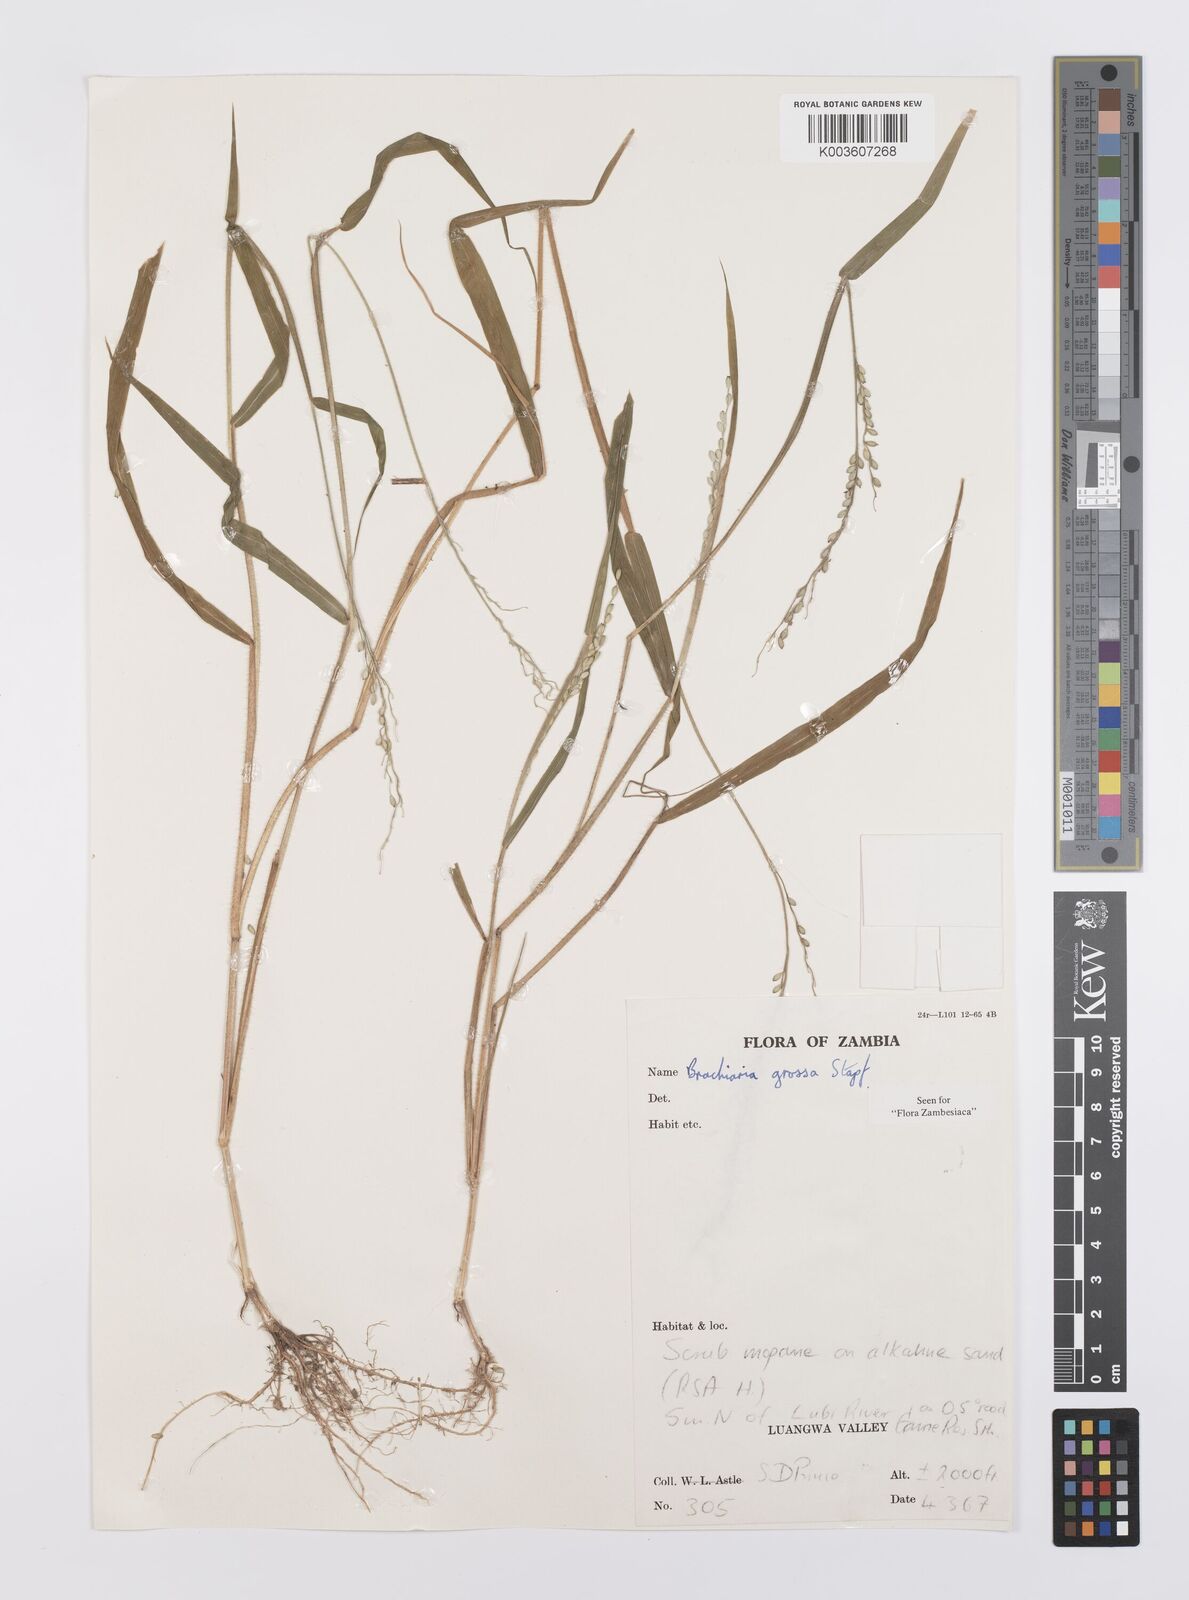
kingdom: Plantae
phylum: Tracheophyta
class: Liliopsida
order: Poales
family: Poaceae
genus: Urochloa
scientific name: Urochloa Brachiaria grossa
